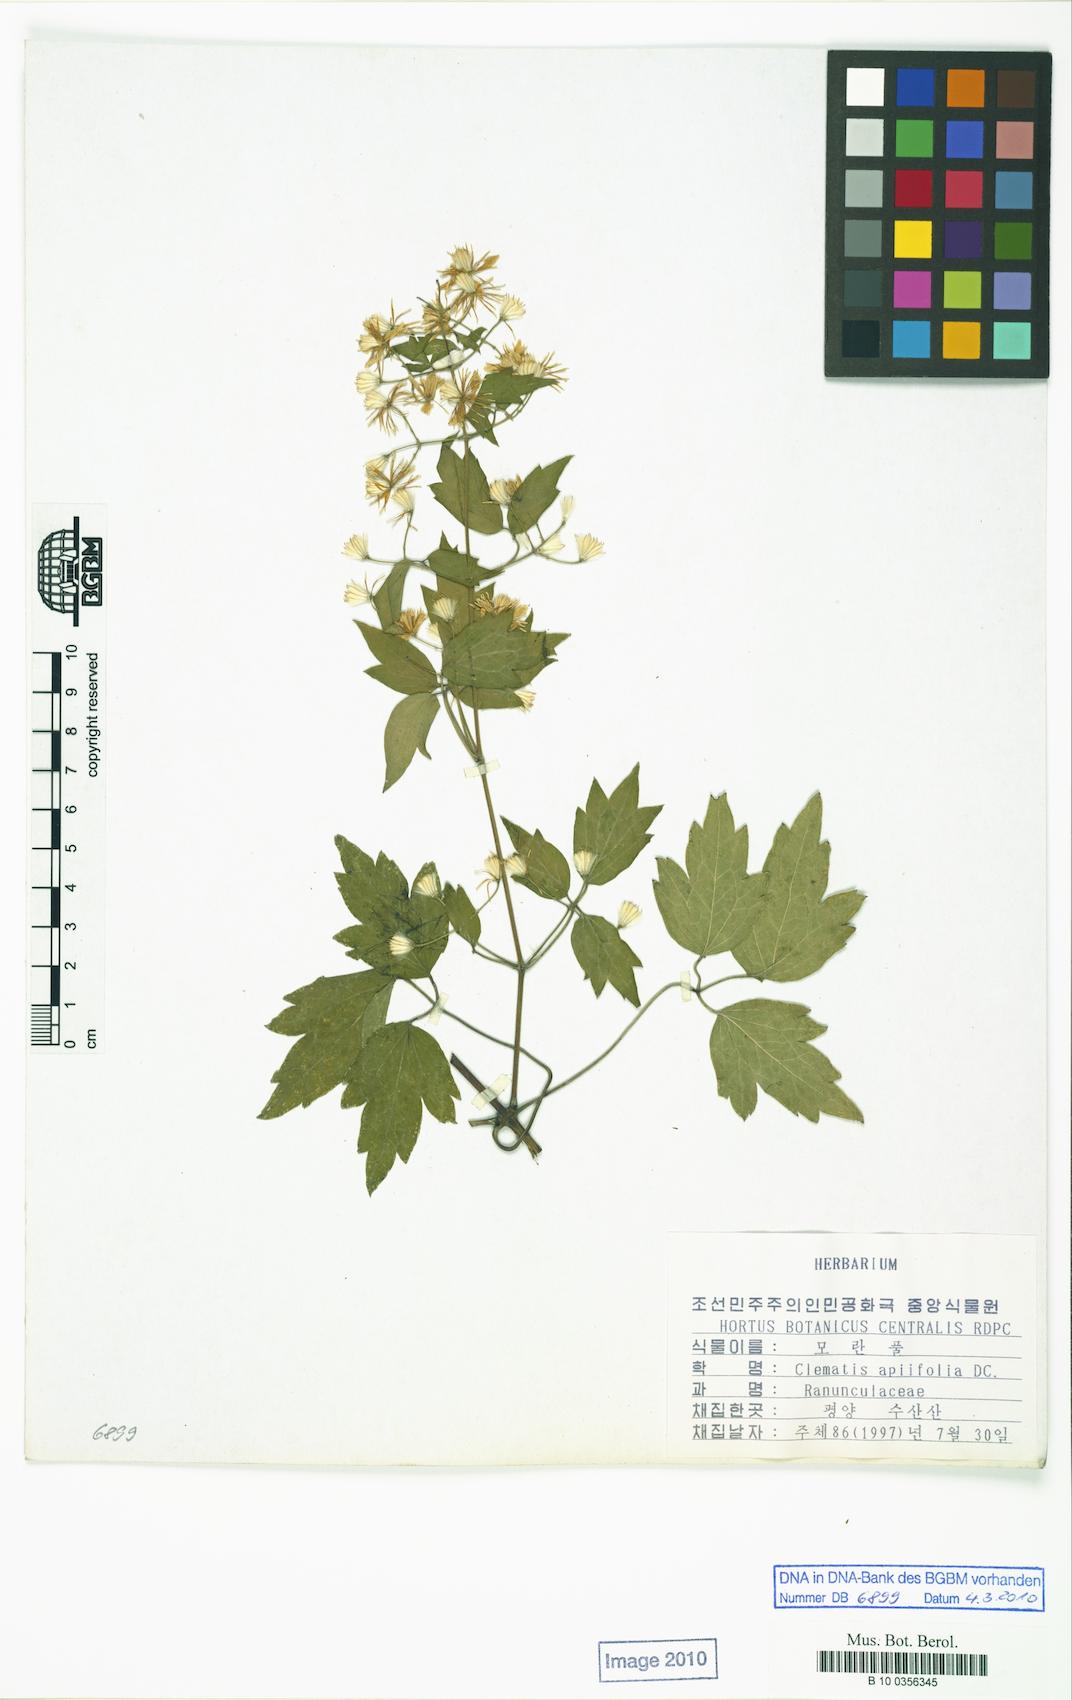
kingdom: Plantae
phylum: Tracheophyta
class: Magnoliopsida
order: Ranunculales
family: Ranunculaceae
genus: Clematis
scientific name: Clematis apiifolia
